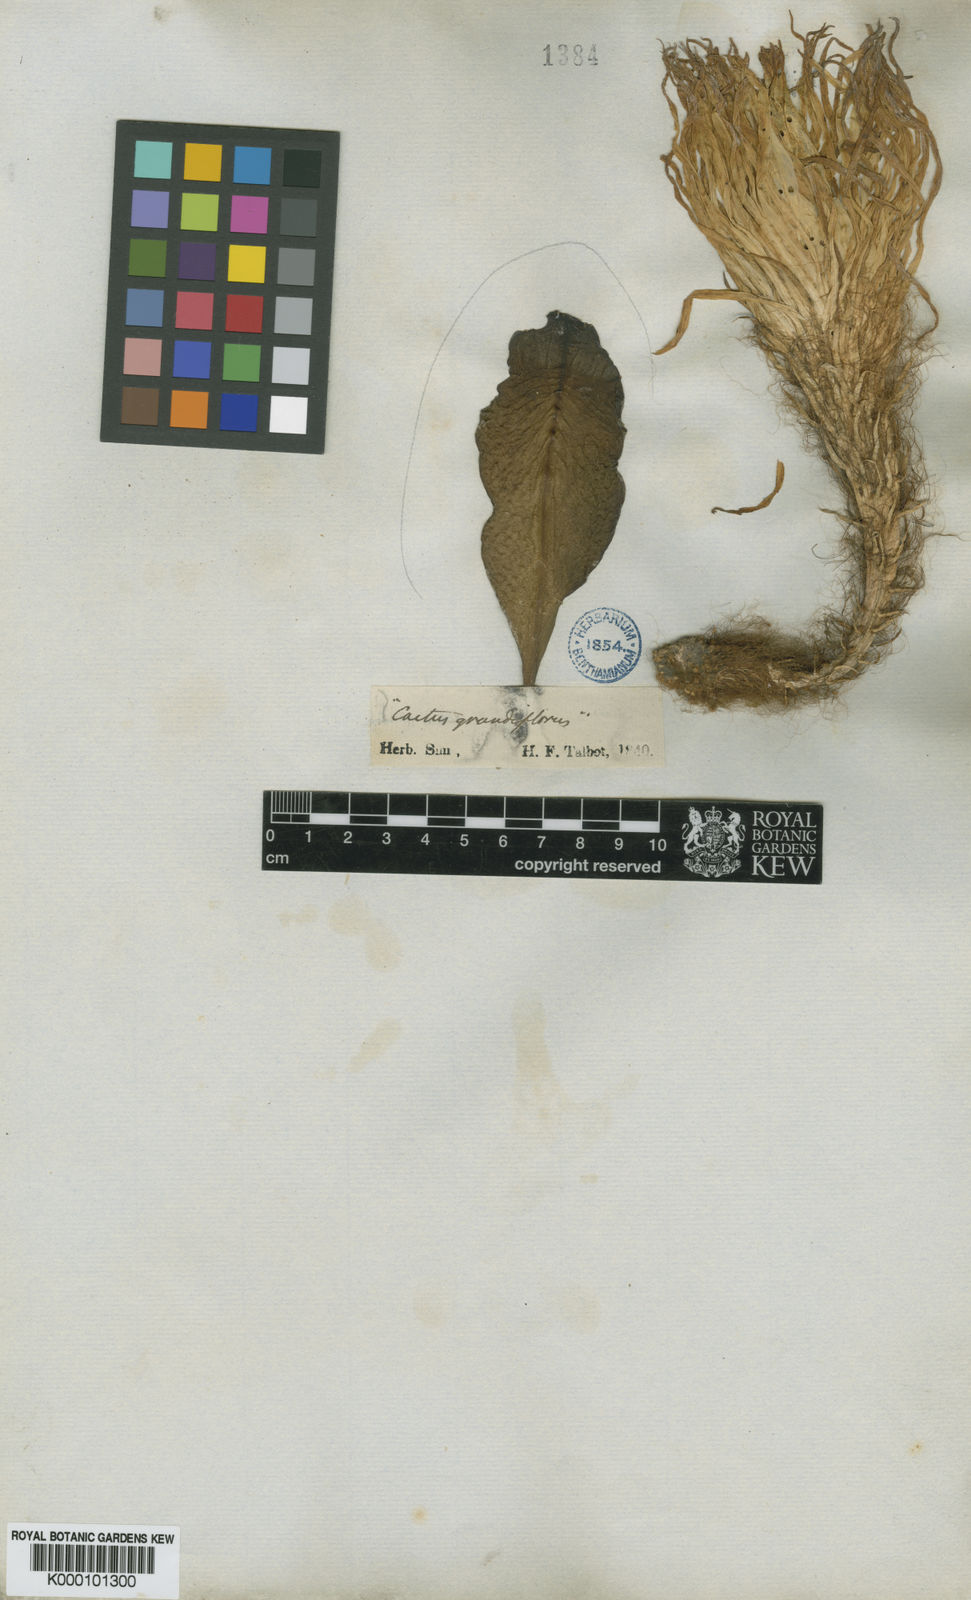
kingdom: Plantae
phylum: Tracheophyta
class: Magnoliopsida
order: Caryophyllales
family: Cactaceae
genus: Selenicereus
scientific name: Selenicereus grandiflorus
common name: Queen of the night
